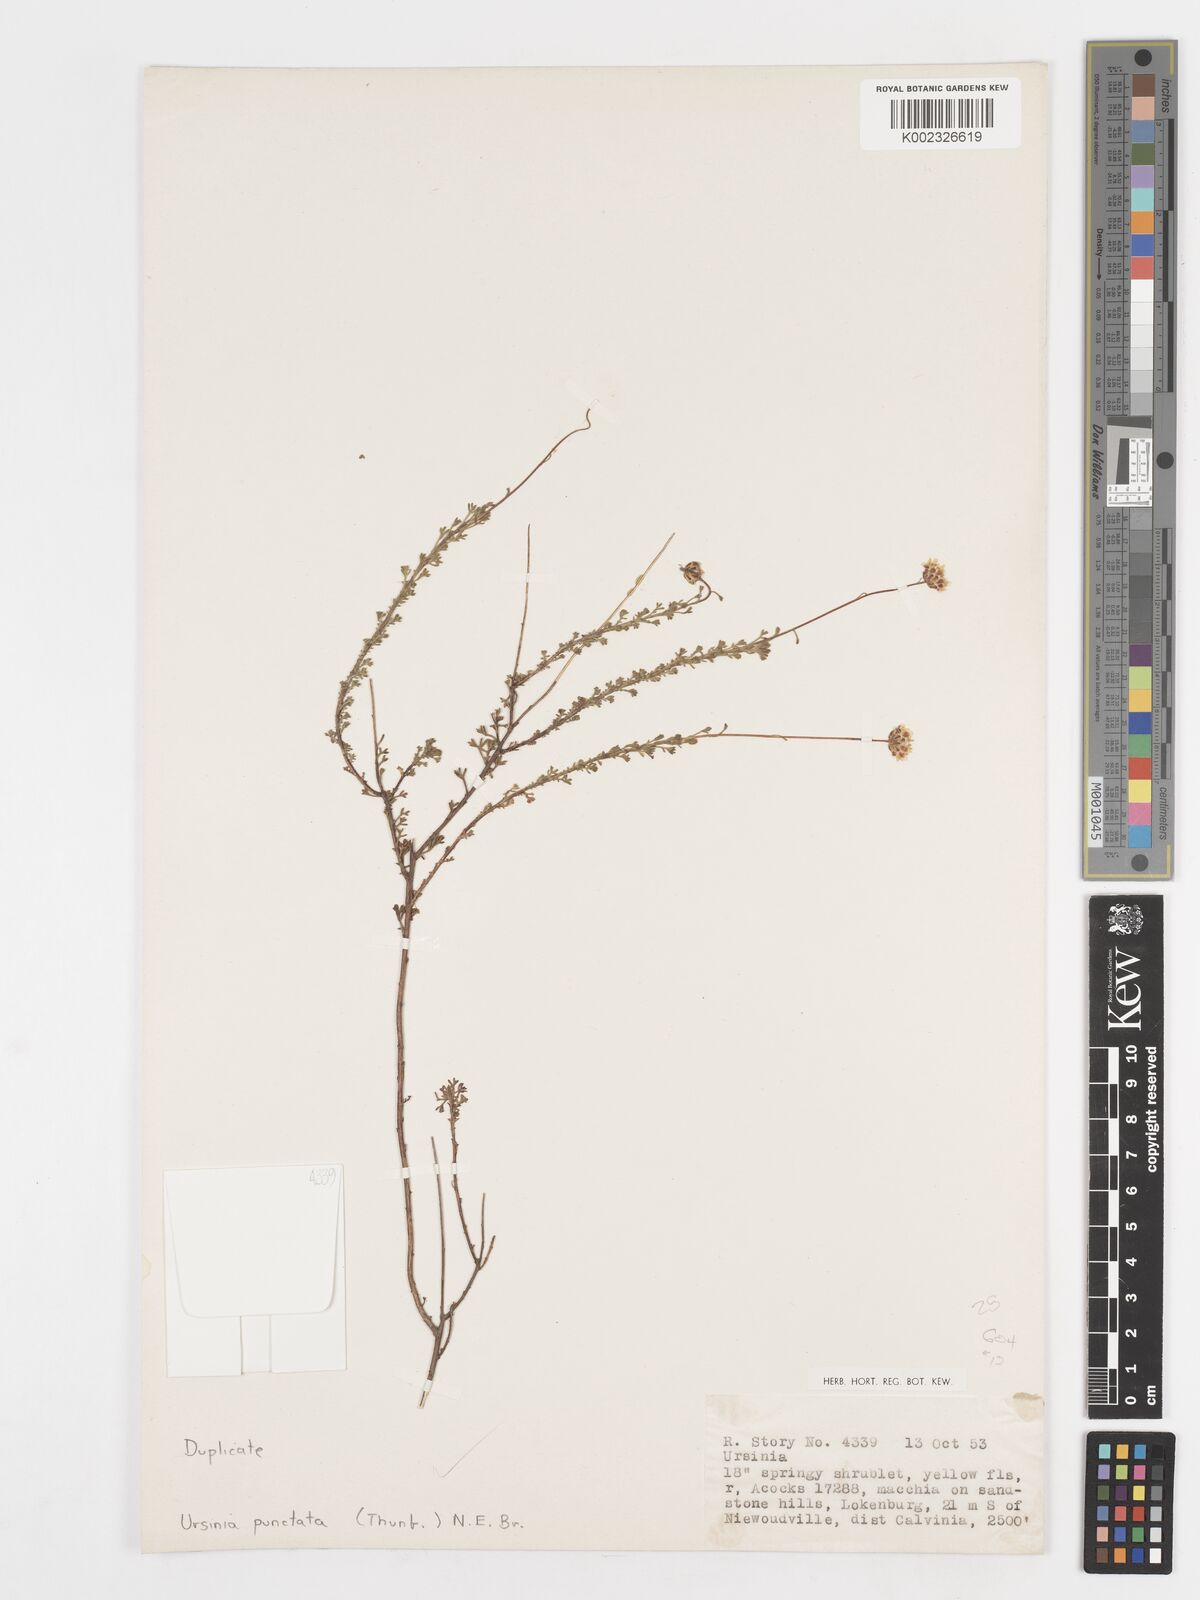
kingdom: Plantae
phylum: Tracheophyta
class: Magnoliopsida
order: Asterales
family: Asteraceae
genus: Ursinia
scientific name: Ursinia punctata
